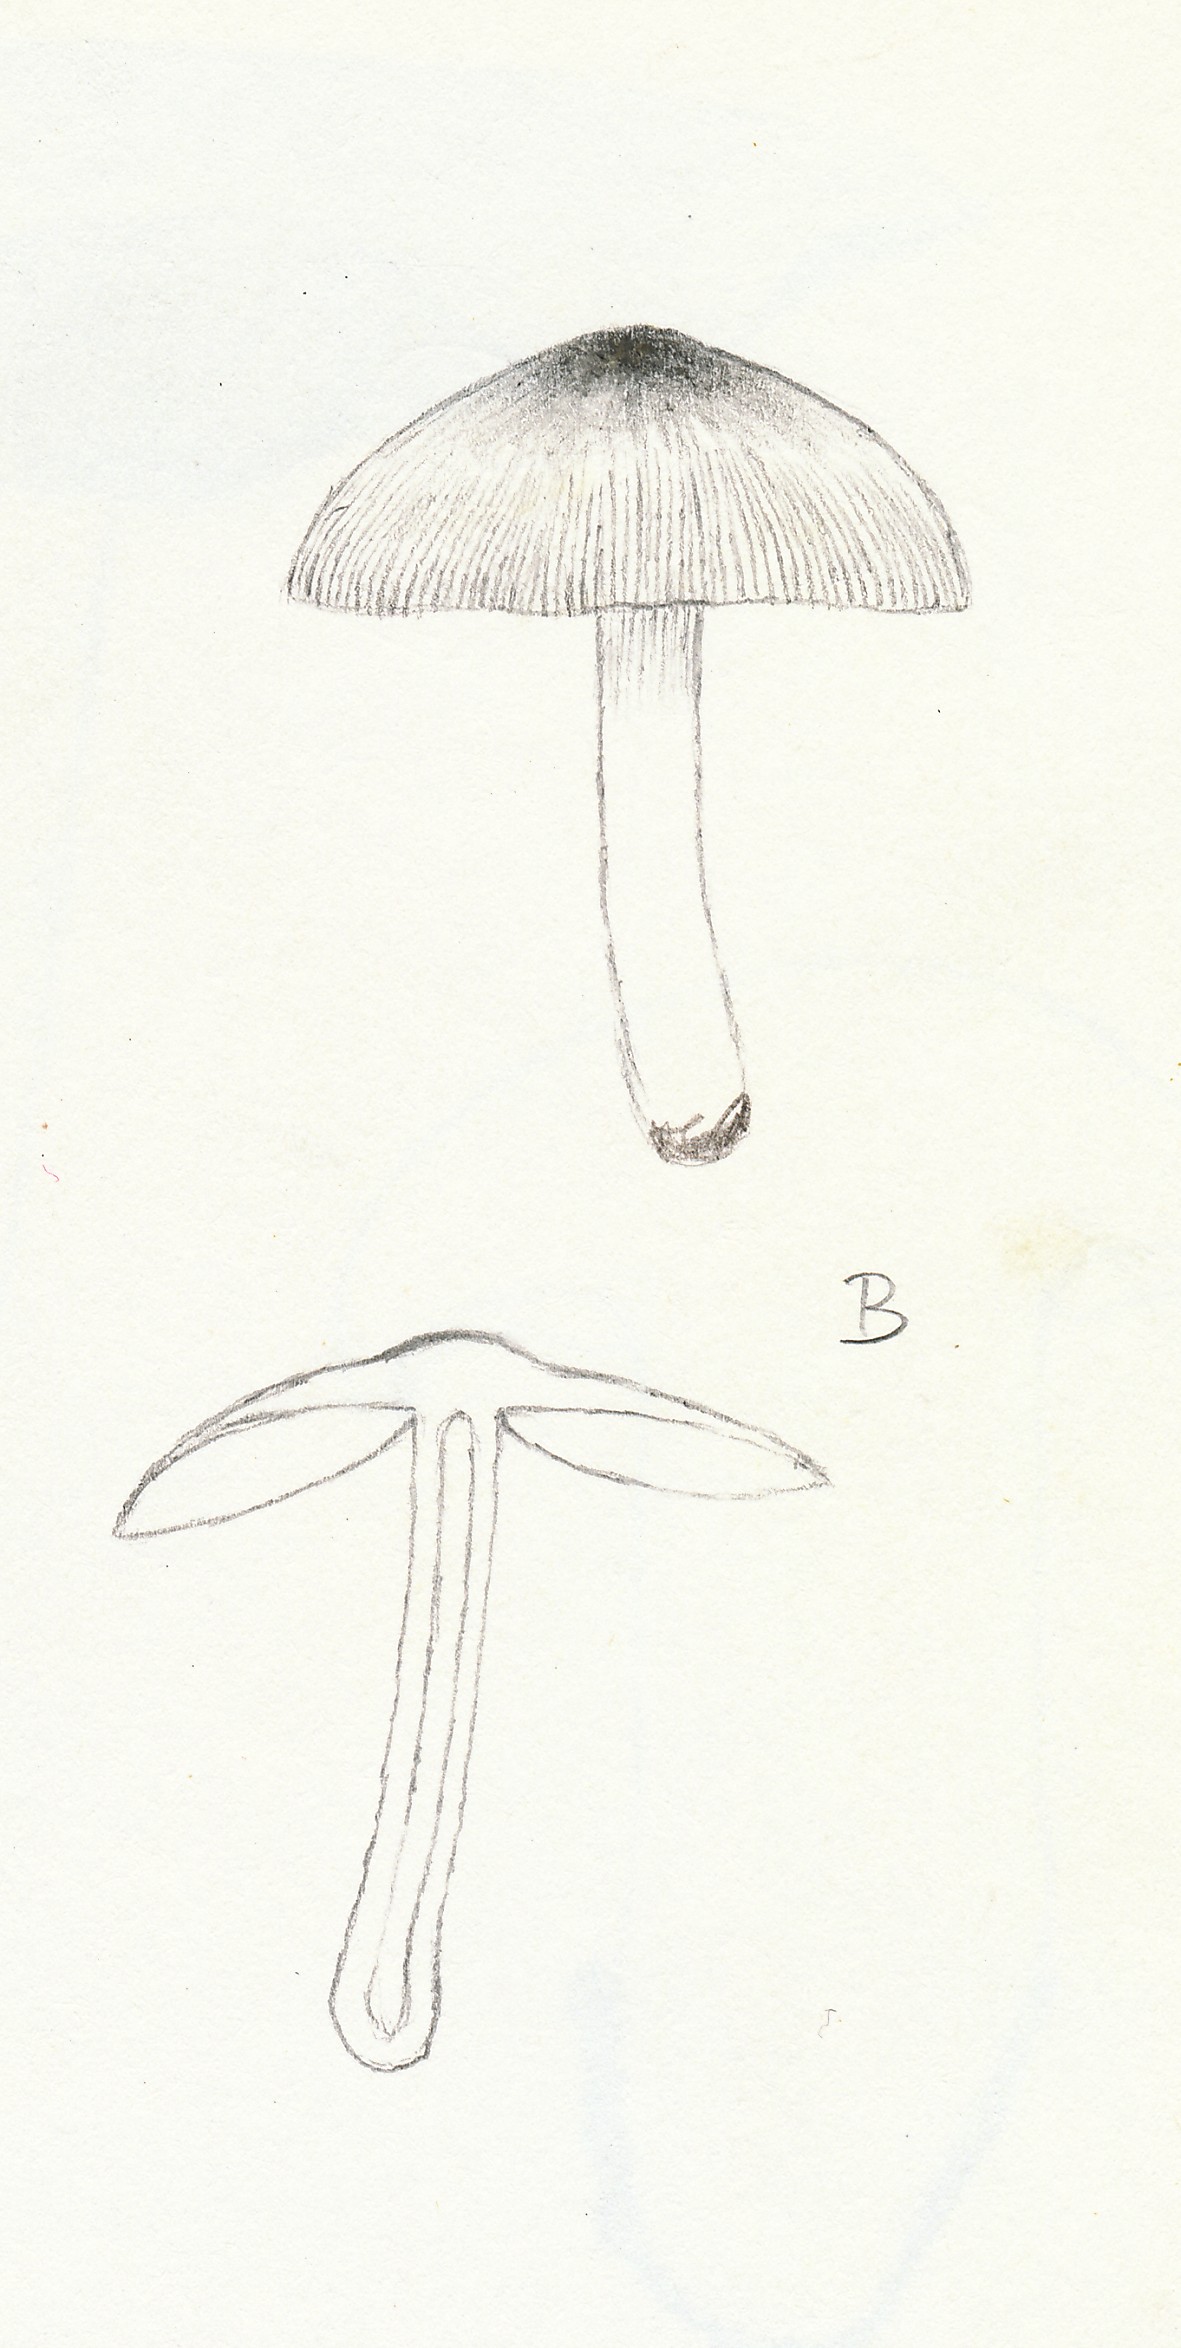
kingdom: Fungi
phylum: Basidiomycota
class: Agaricomycetes
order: Agaricales
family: Bolbitiaceae
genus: Bolbitius
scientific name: Bolbitius reticulatus
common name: netåret gulhat
